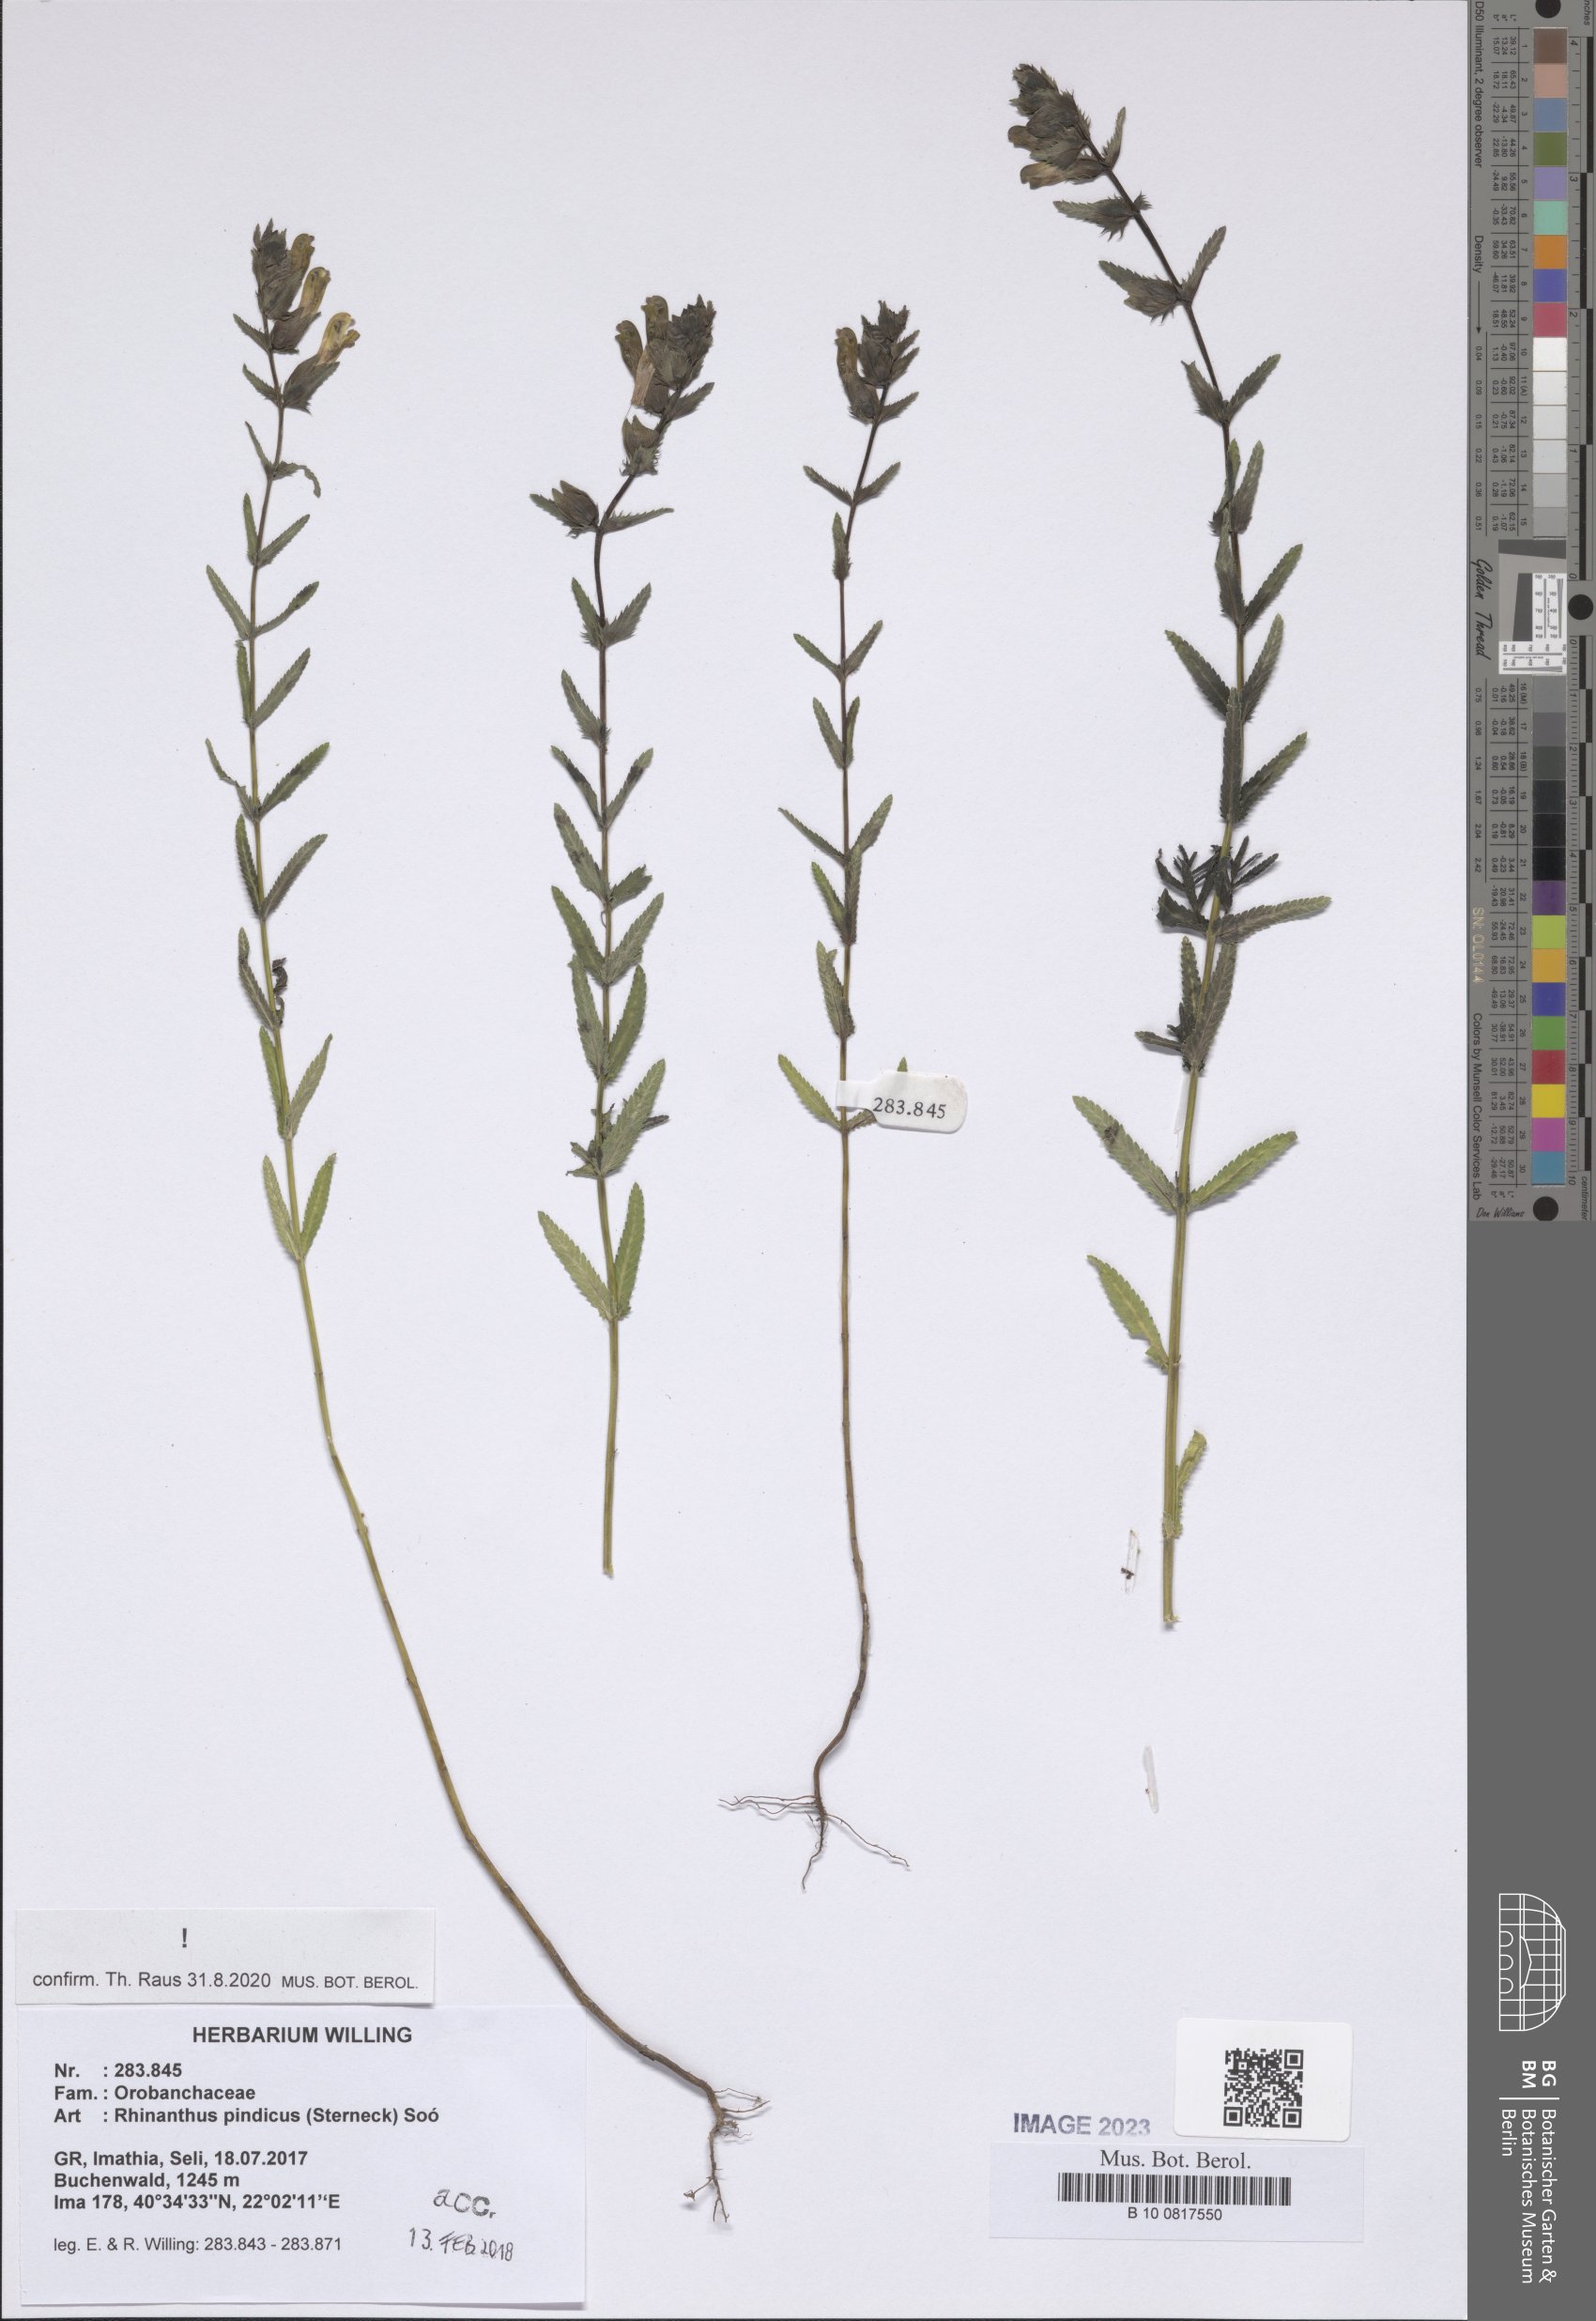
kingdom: Plantae
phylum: Tracheophyta
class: Magnoliopsida
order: Lamiales
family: Orobanchaceae
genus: Rhinanthus
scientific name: Rhinanthus pindicus
